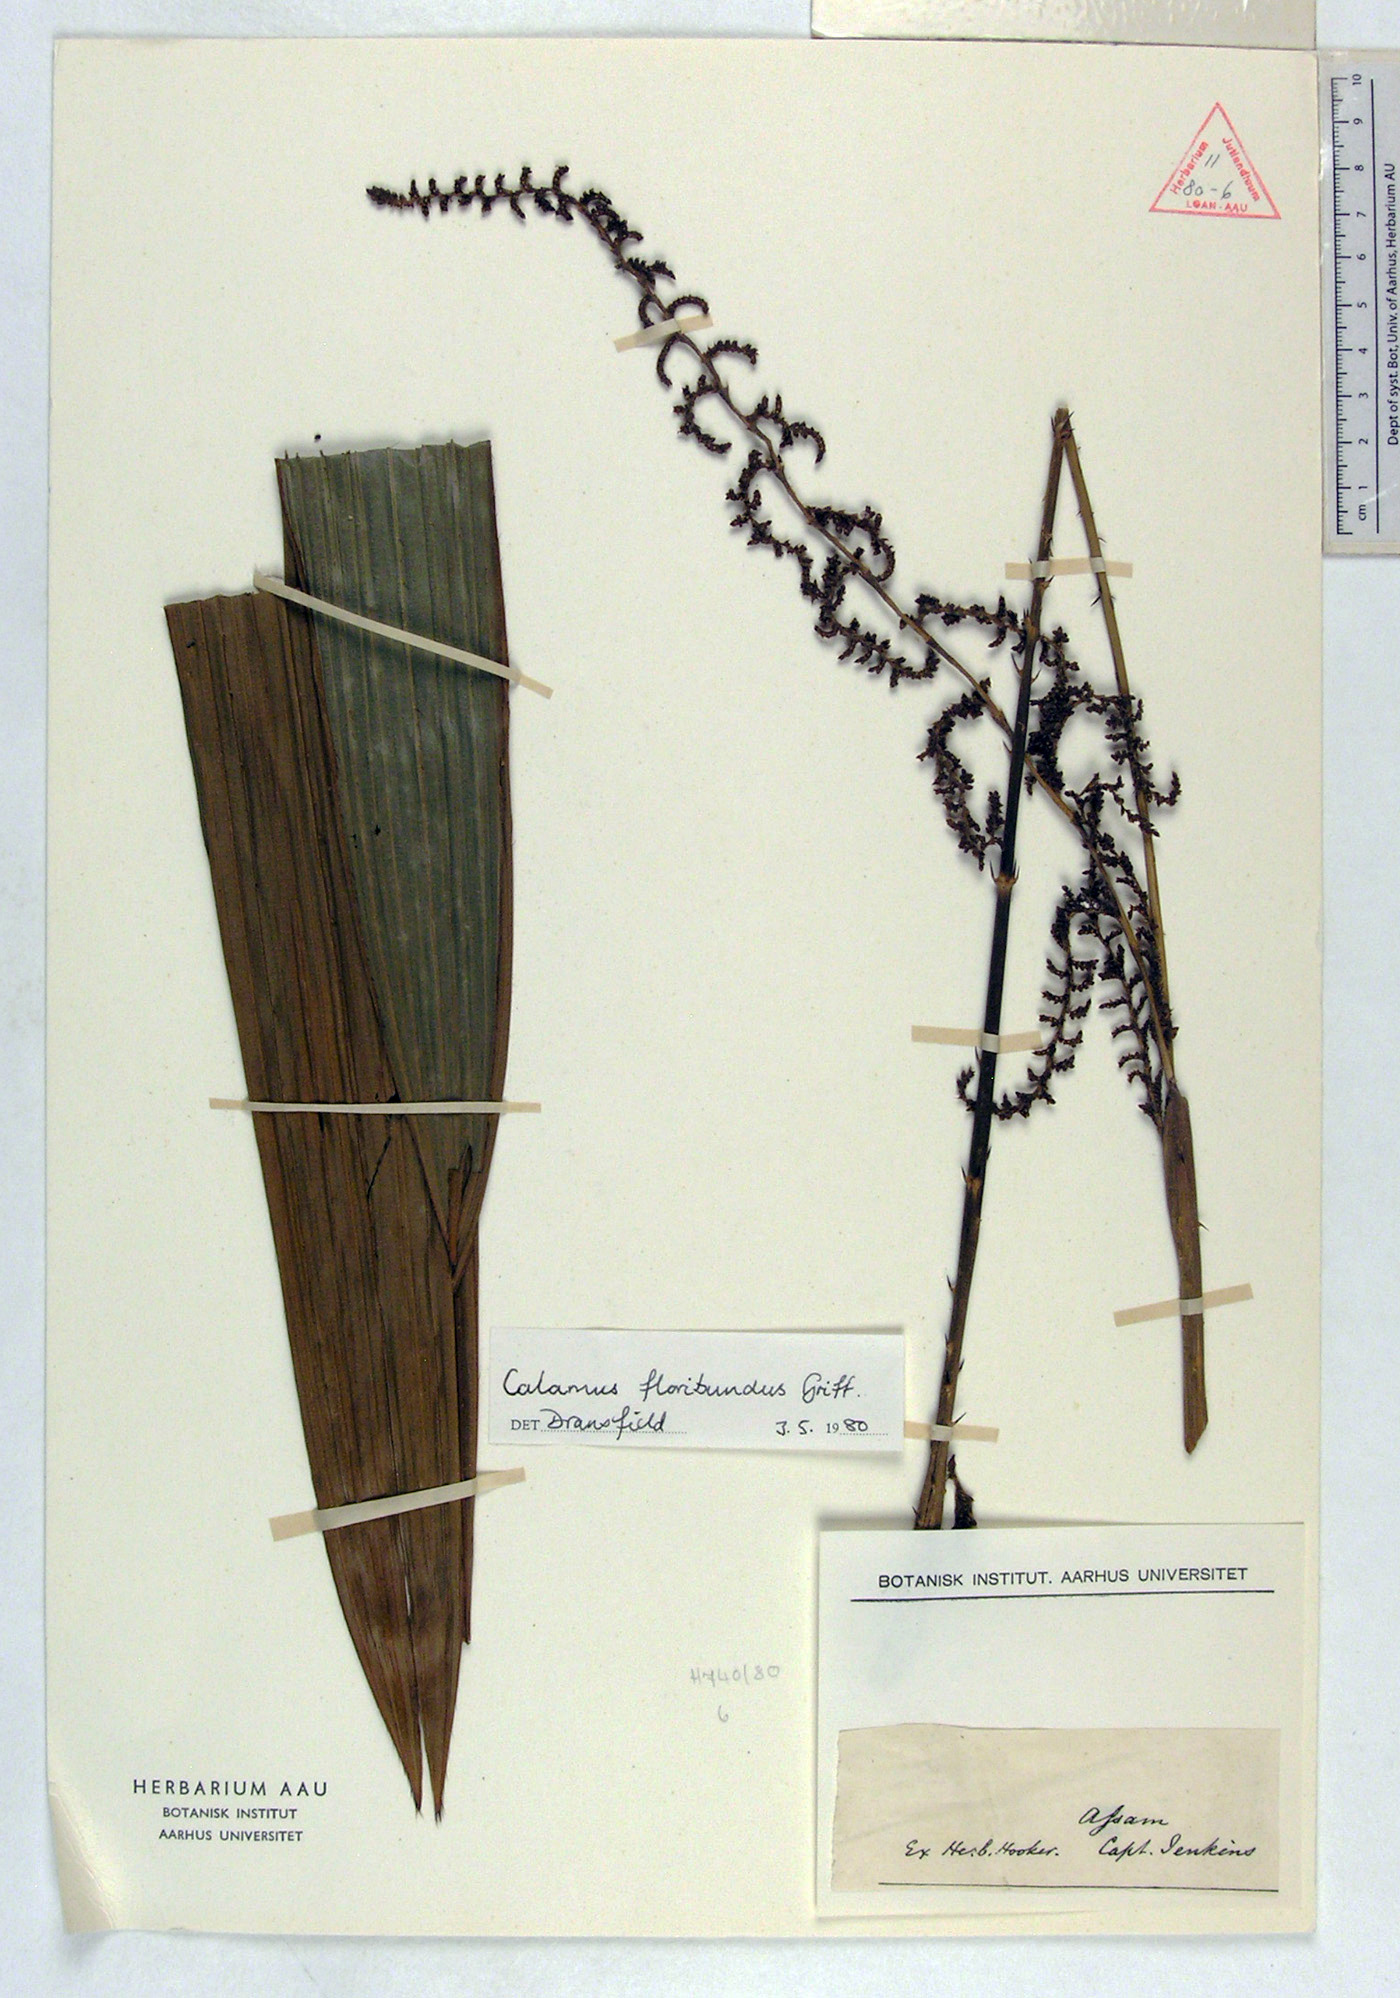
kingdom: Plantae
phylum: Tracheophyta
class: Liliopsida
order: Arecales
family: Arecaceae
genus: Calamus
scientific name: Calamus floribundus
